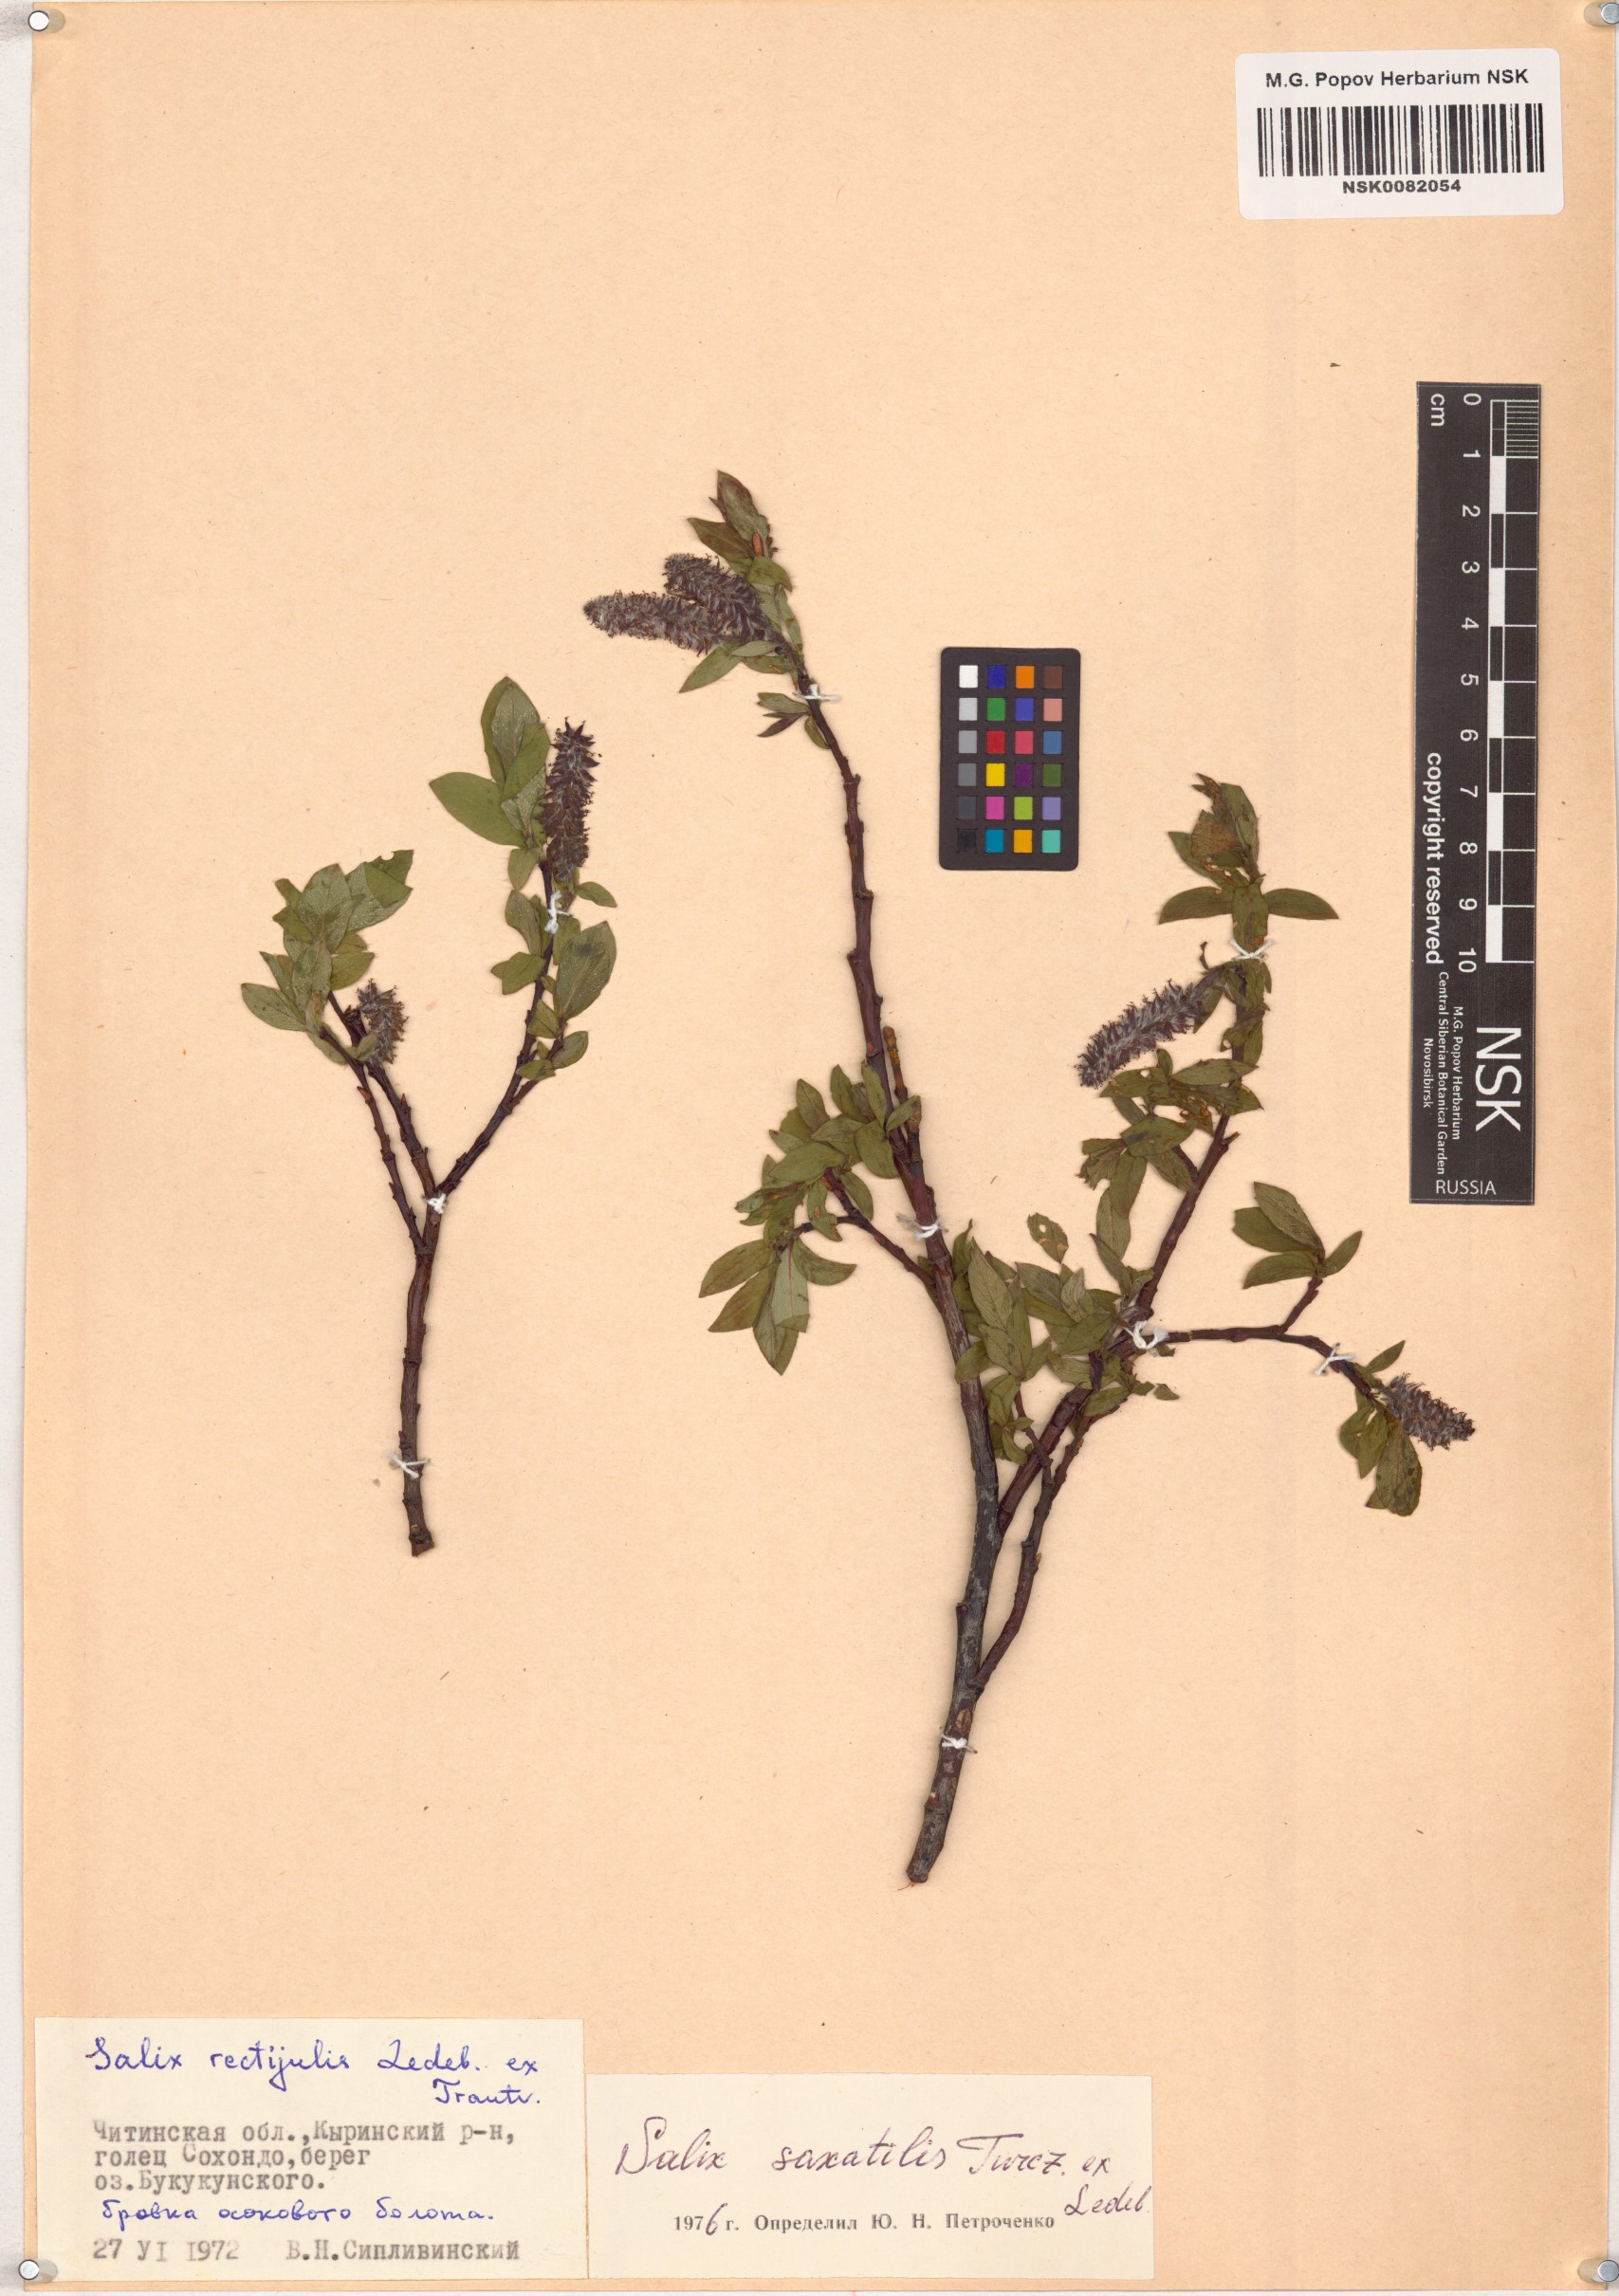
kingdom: Plantae
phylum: Tracheophyta
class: Magnoliopsida
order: Malpighiales
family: Salicaceae
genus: Salix
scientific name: Salix saxatilis
